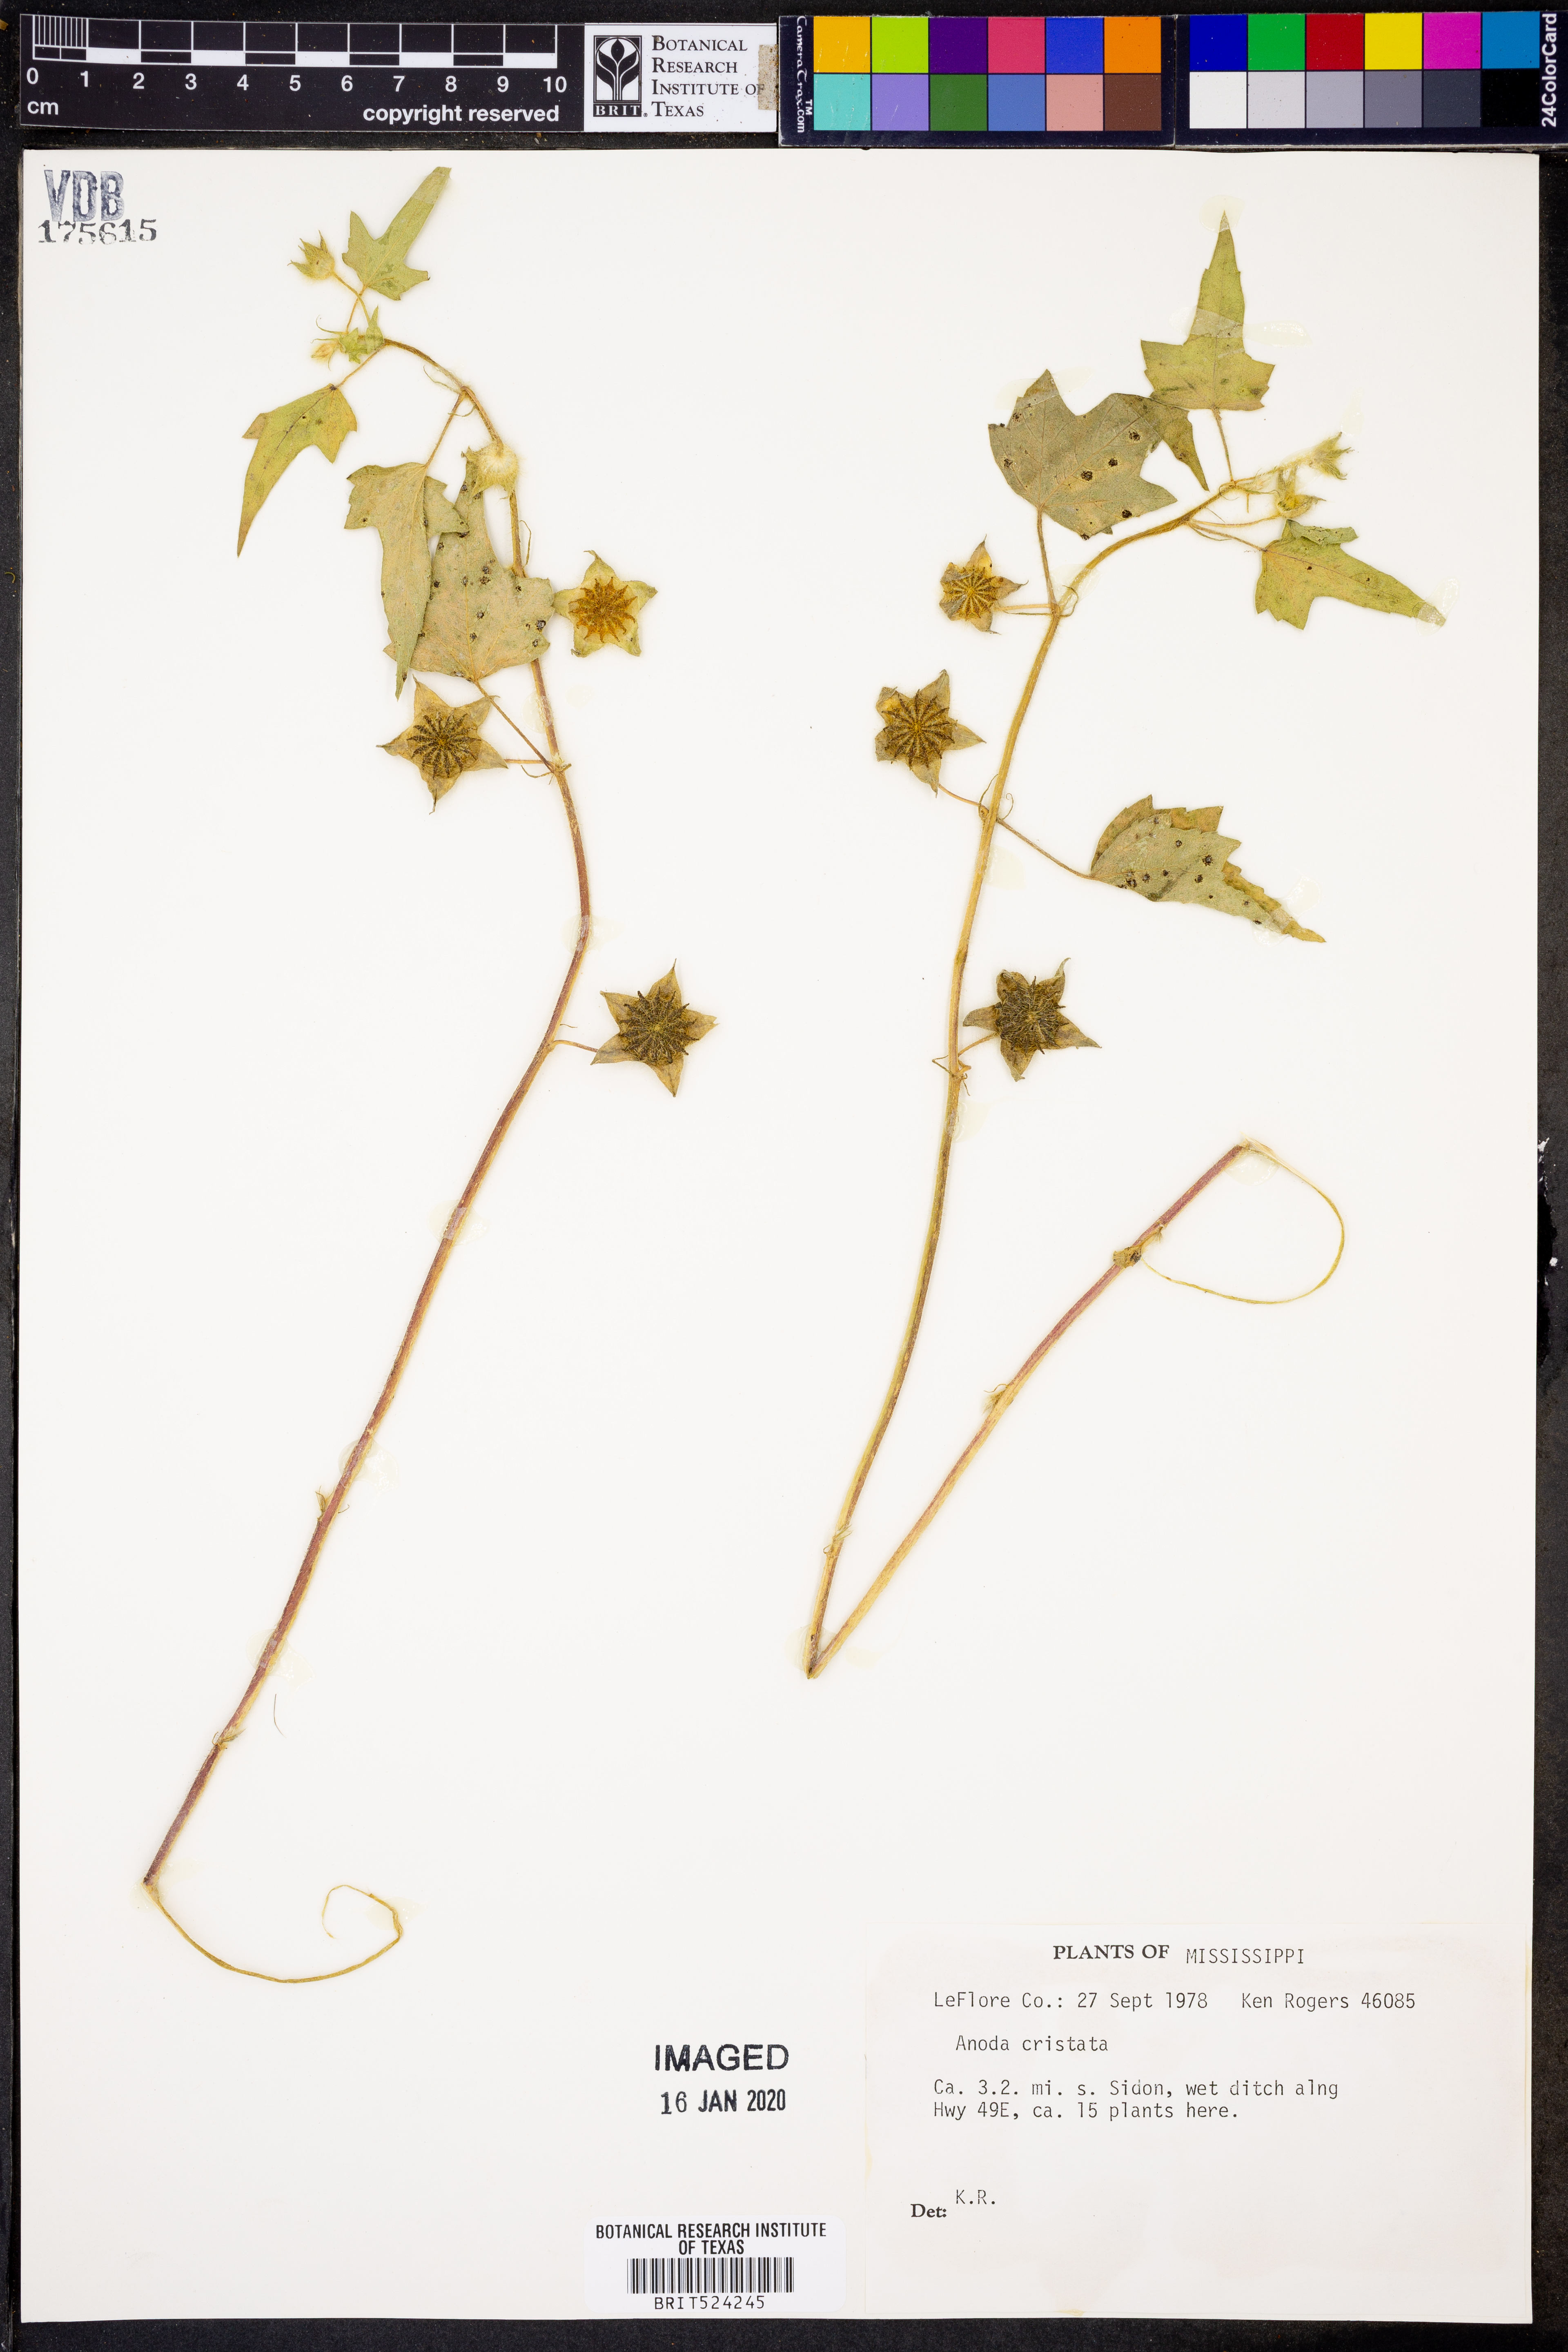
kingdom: Plantae
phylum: Tracheophyta
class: Magnoliopsida
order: Malvales
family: Malvaceae
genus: Anoda
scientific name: Anoda cristata
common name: Spurred anoda
